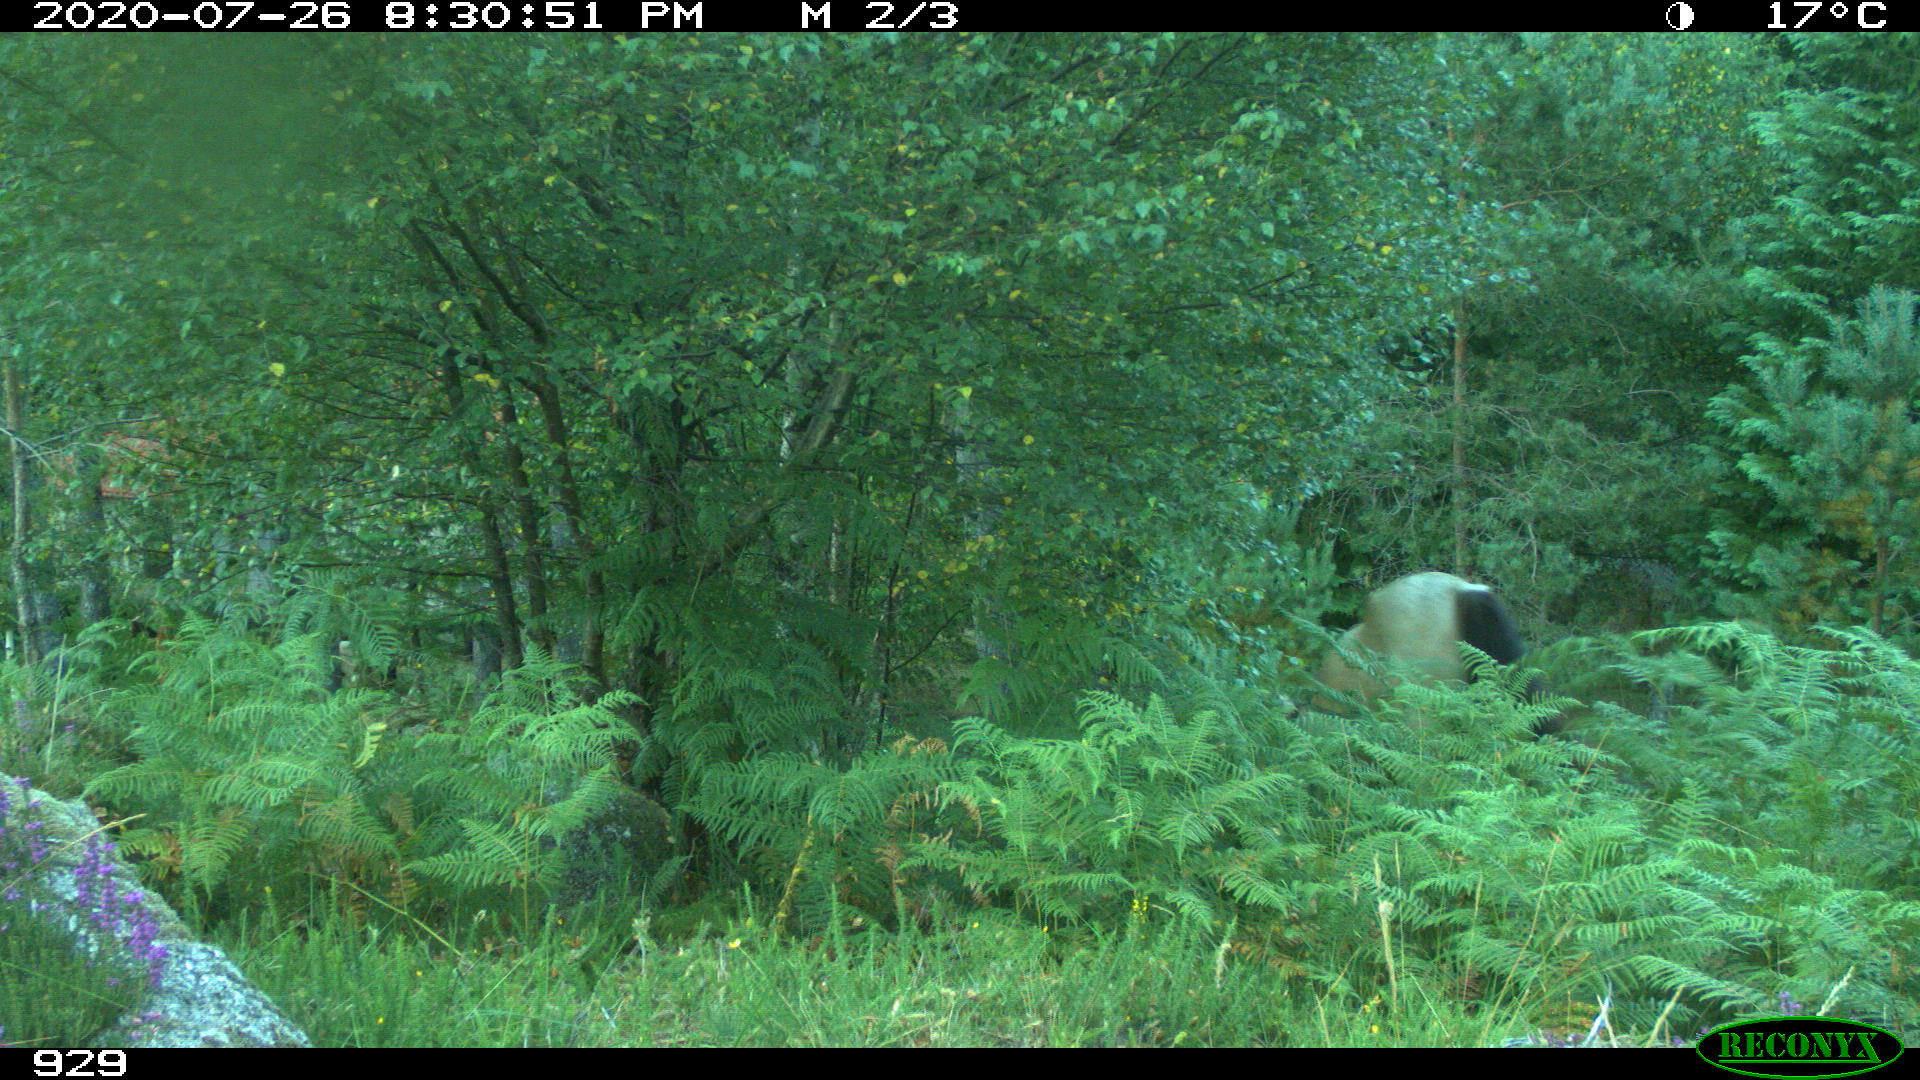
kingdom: Animalia
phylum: Chordata
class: Mammalia
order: Perissodactyla
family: Equidae
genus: Equus
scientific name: Equus caballus
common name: Horse
